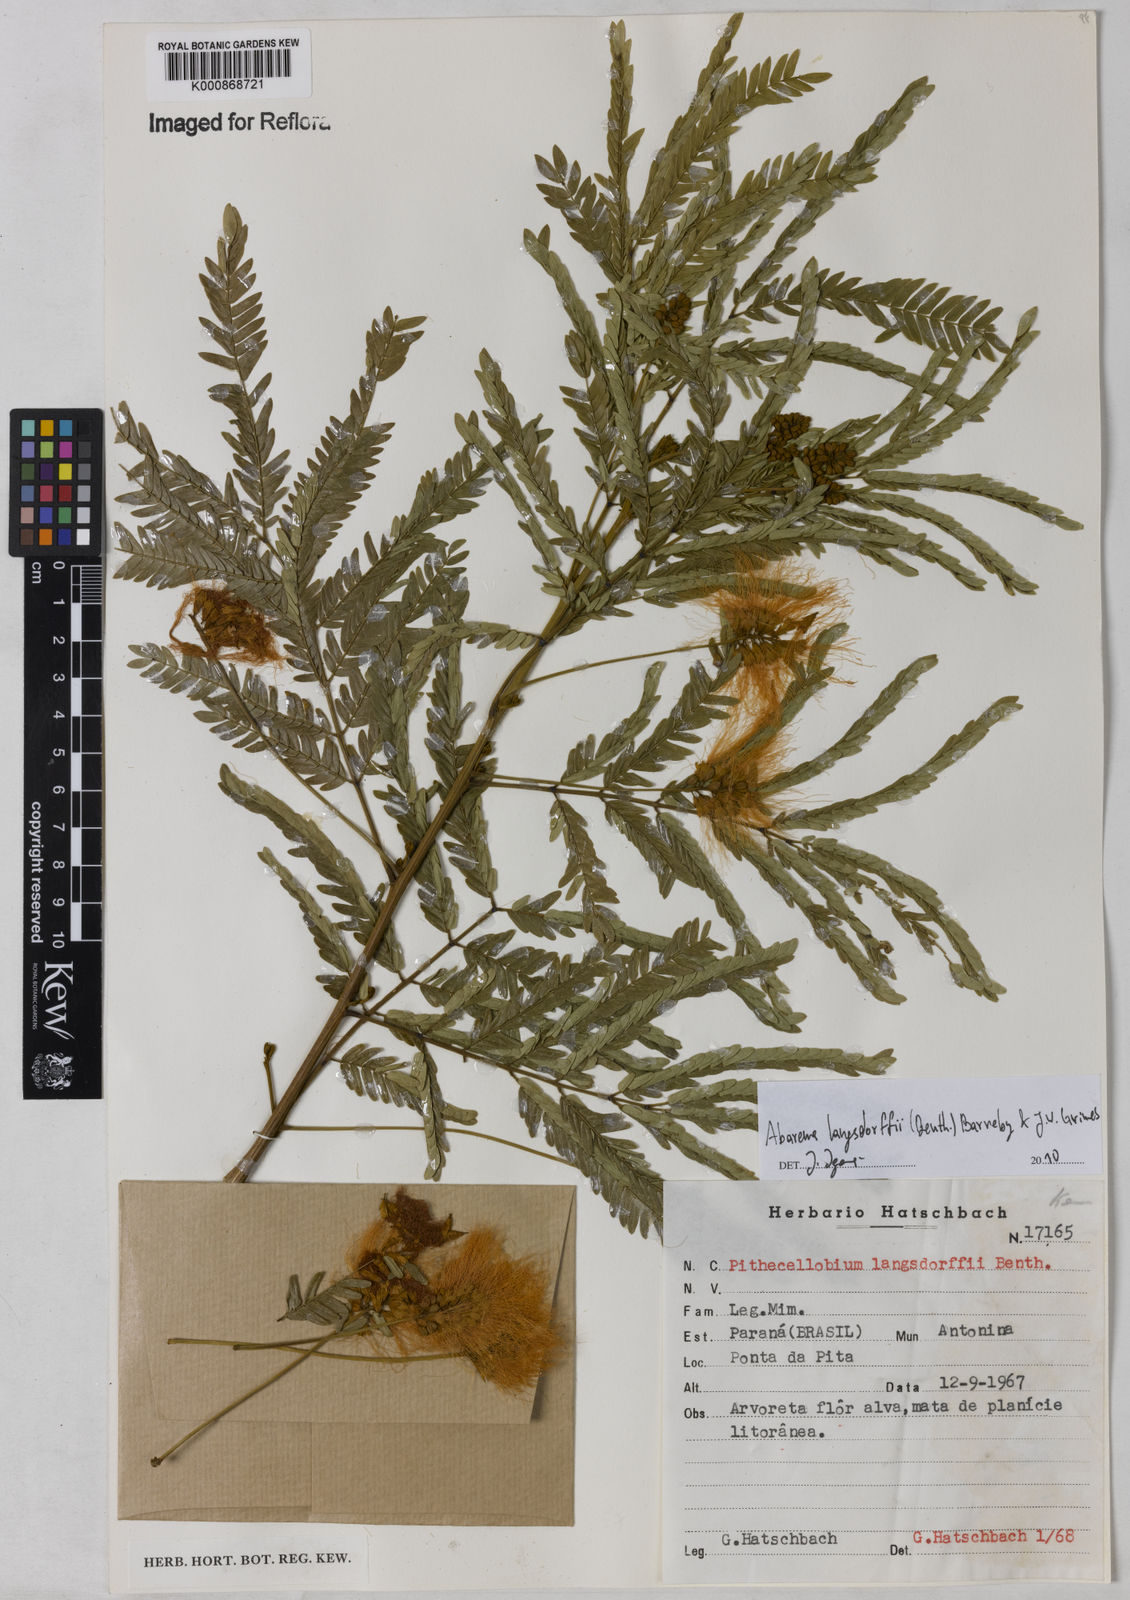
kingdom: Plantae
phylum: Tracheophyta
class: Magnoliopsida
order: Fabales
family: Fabaceae
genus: Jupunba
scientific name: Jupunba langsdorffii
